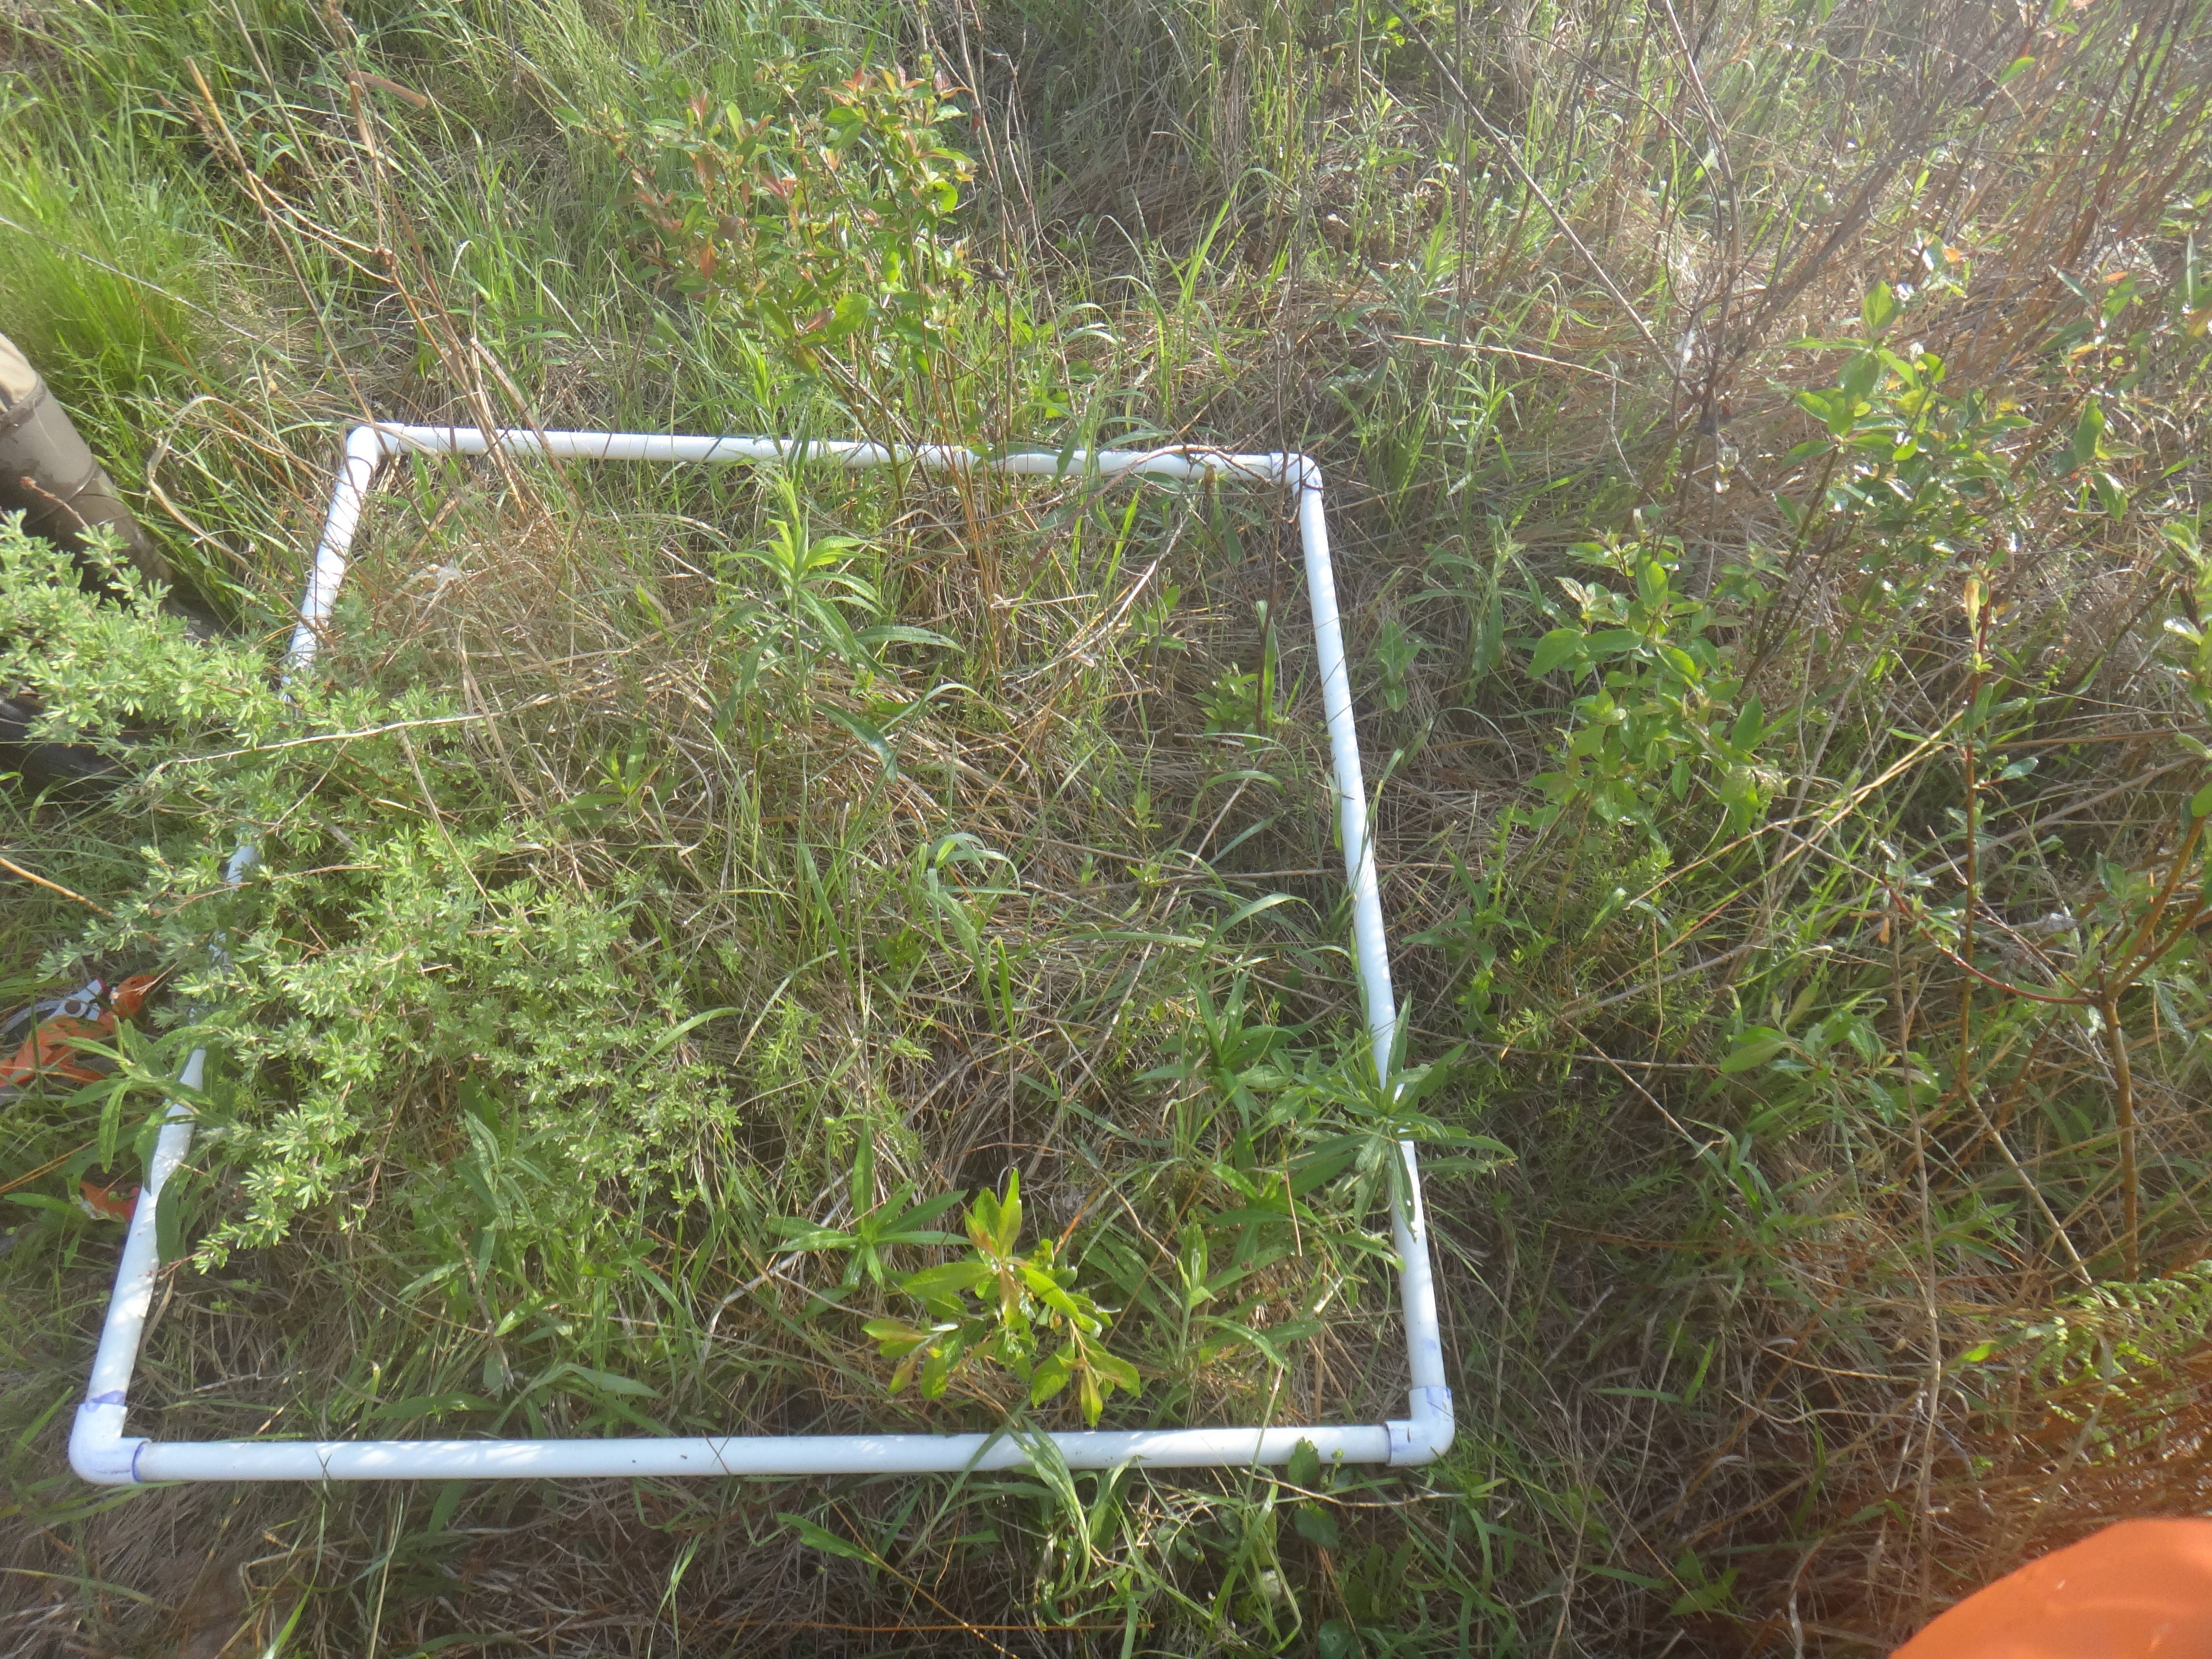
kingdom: Plantae
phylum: Tracheophyta
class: Magnoliopsida
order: Apiales
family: Apiaceae
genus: Zizia
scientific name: Zizia aurea
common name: Golden alexanders
